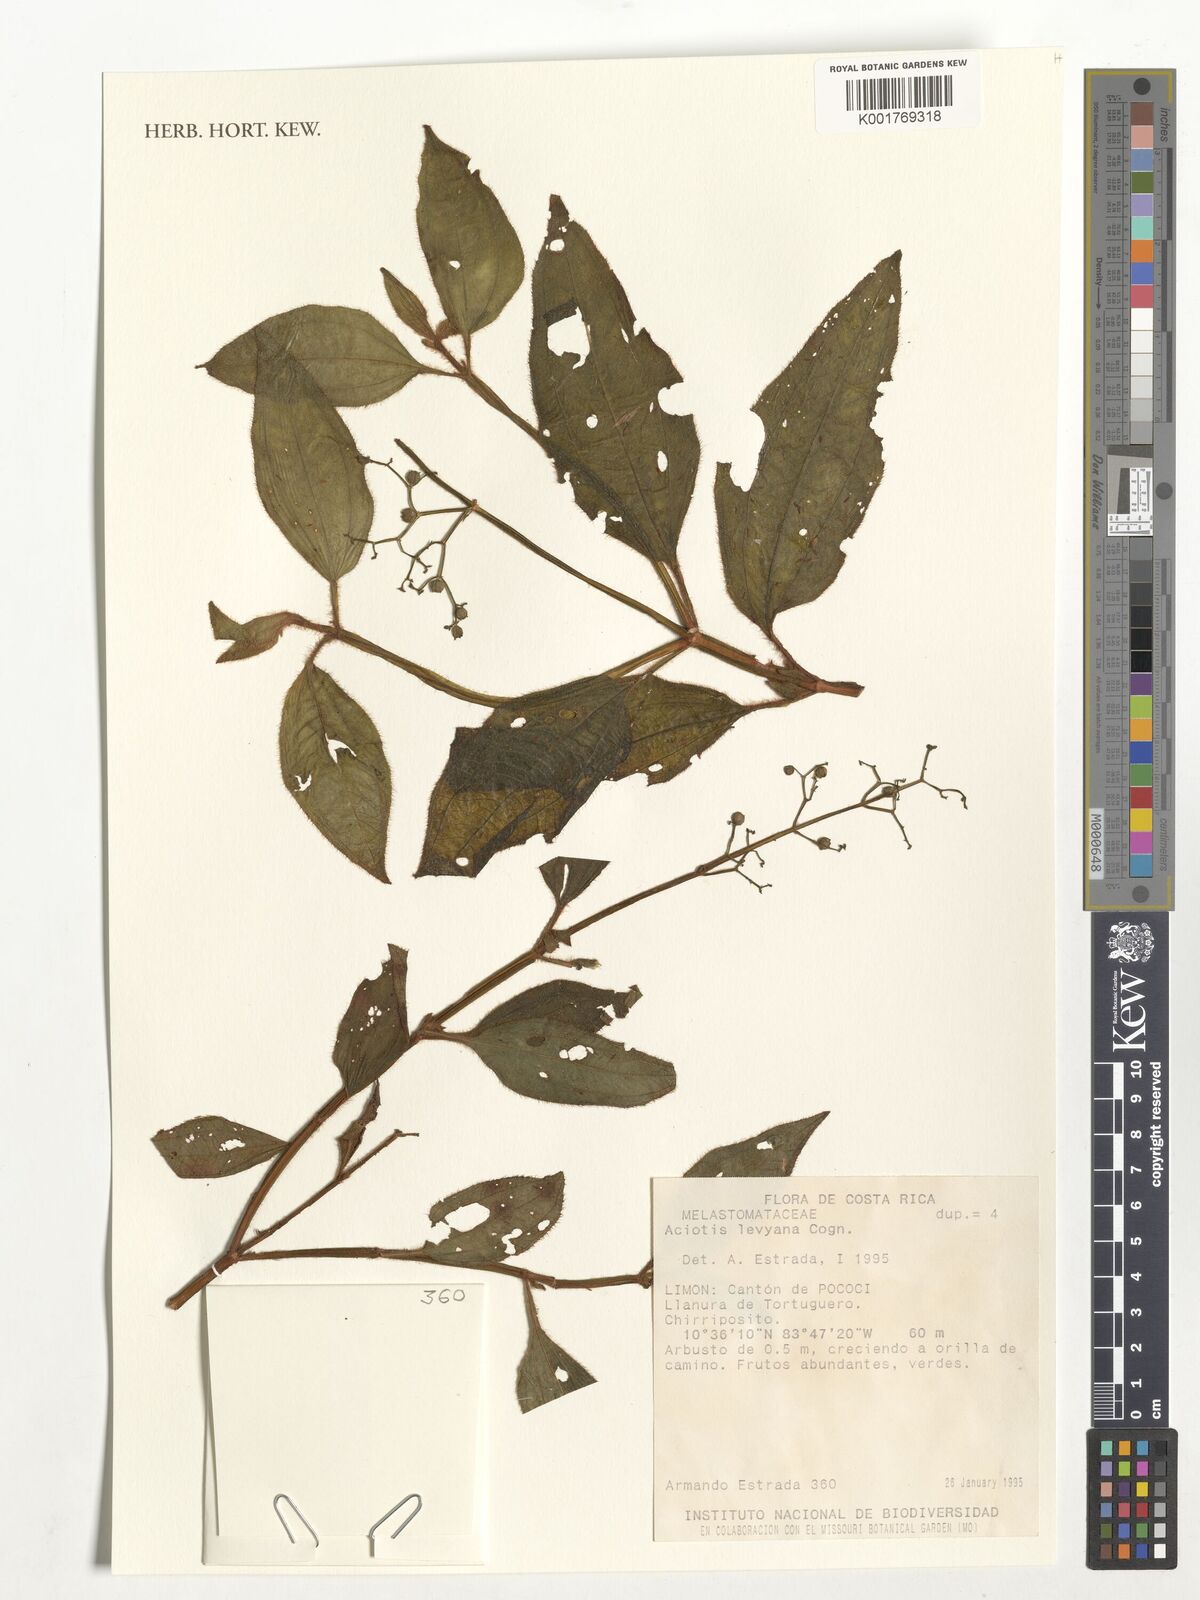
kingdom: Plantae
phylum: Tracheophyta
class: Magnoliopsida
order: Myrtales
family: Melastomataceae
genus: Aciotis
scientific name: Aciotis rubricaulis
